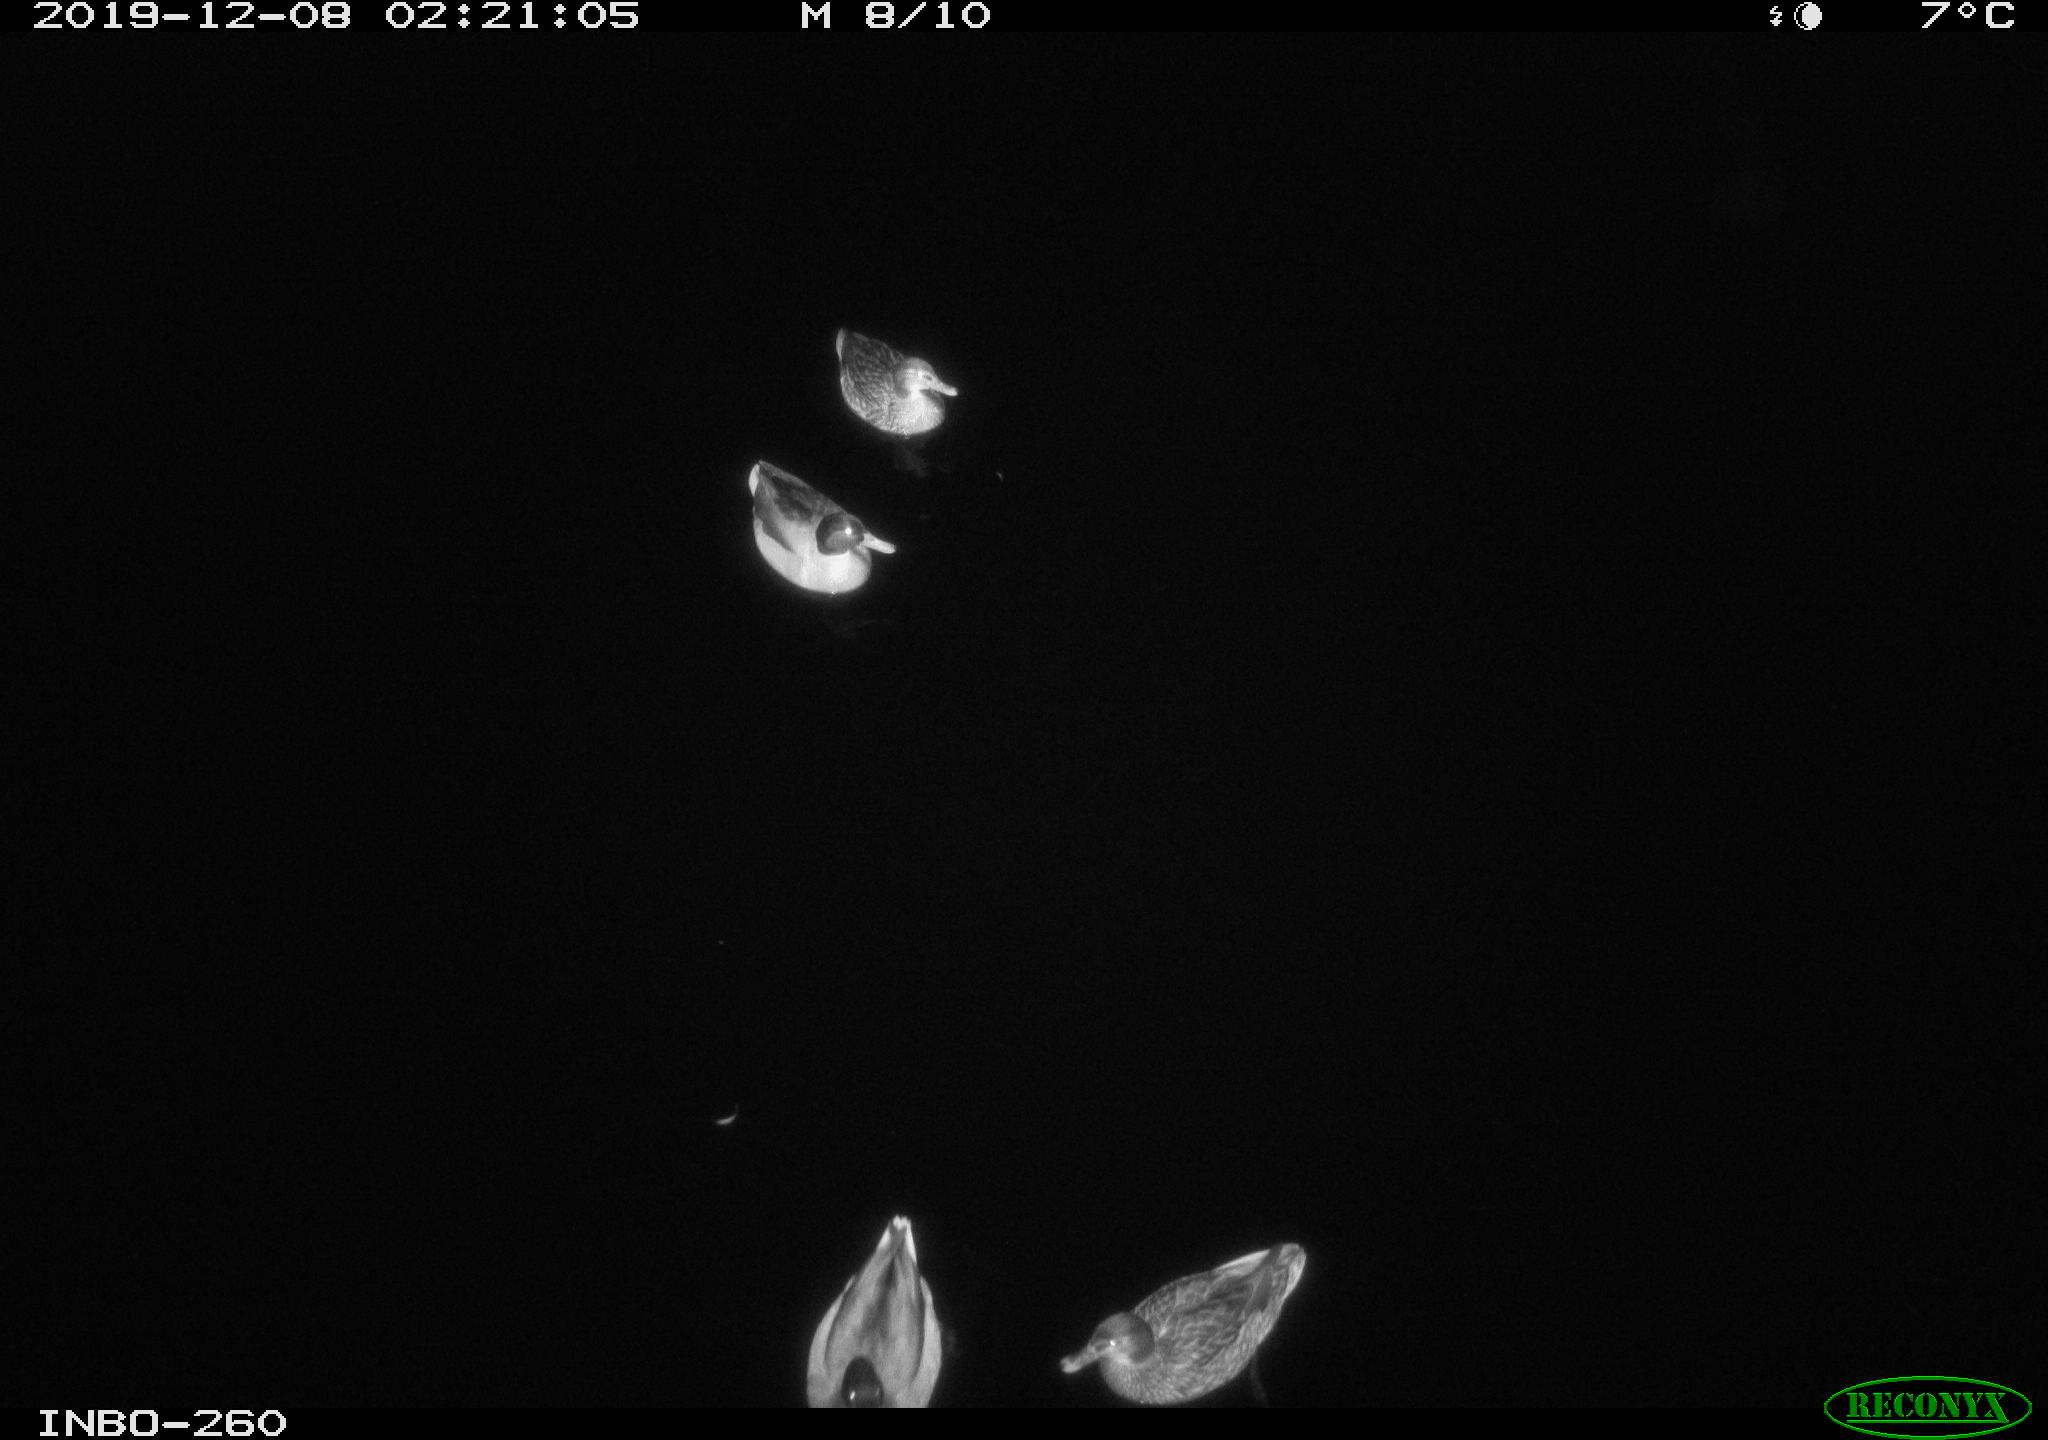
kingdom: Animalia
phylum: Chordata
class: Aves
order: Anseriformes
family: Anatidae
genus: Anas
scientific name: Anas platyrhynchos
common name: Mallard
